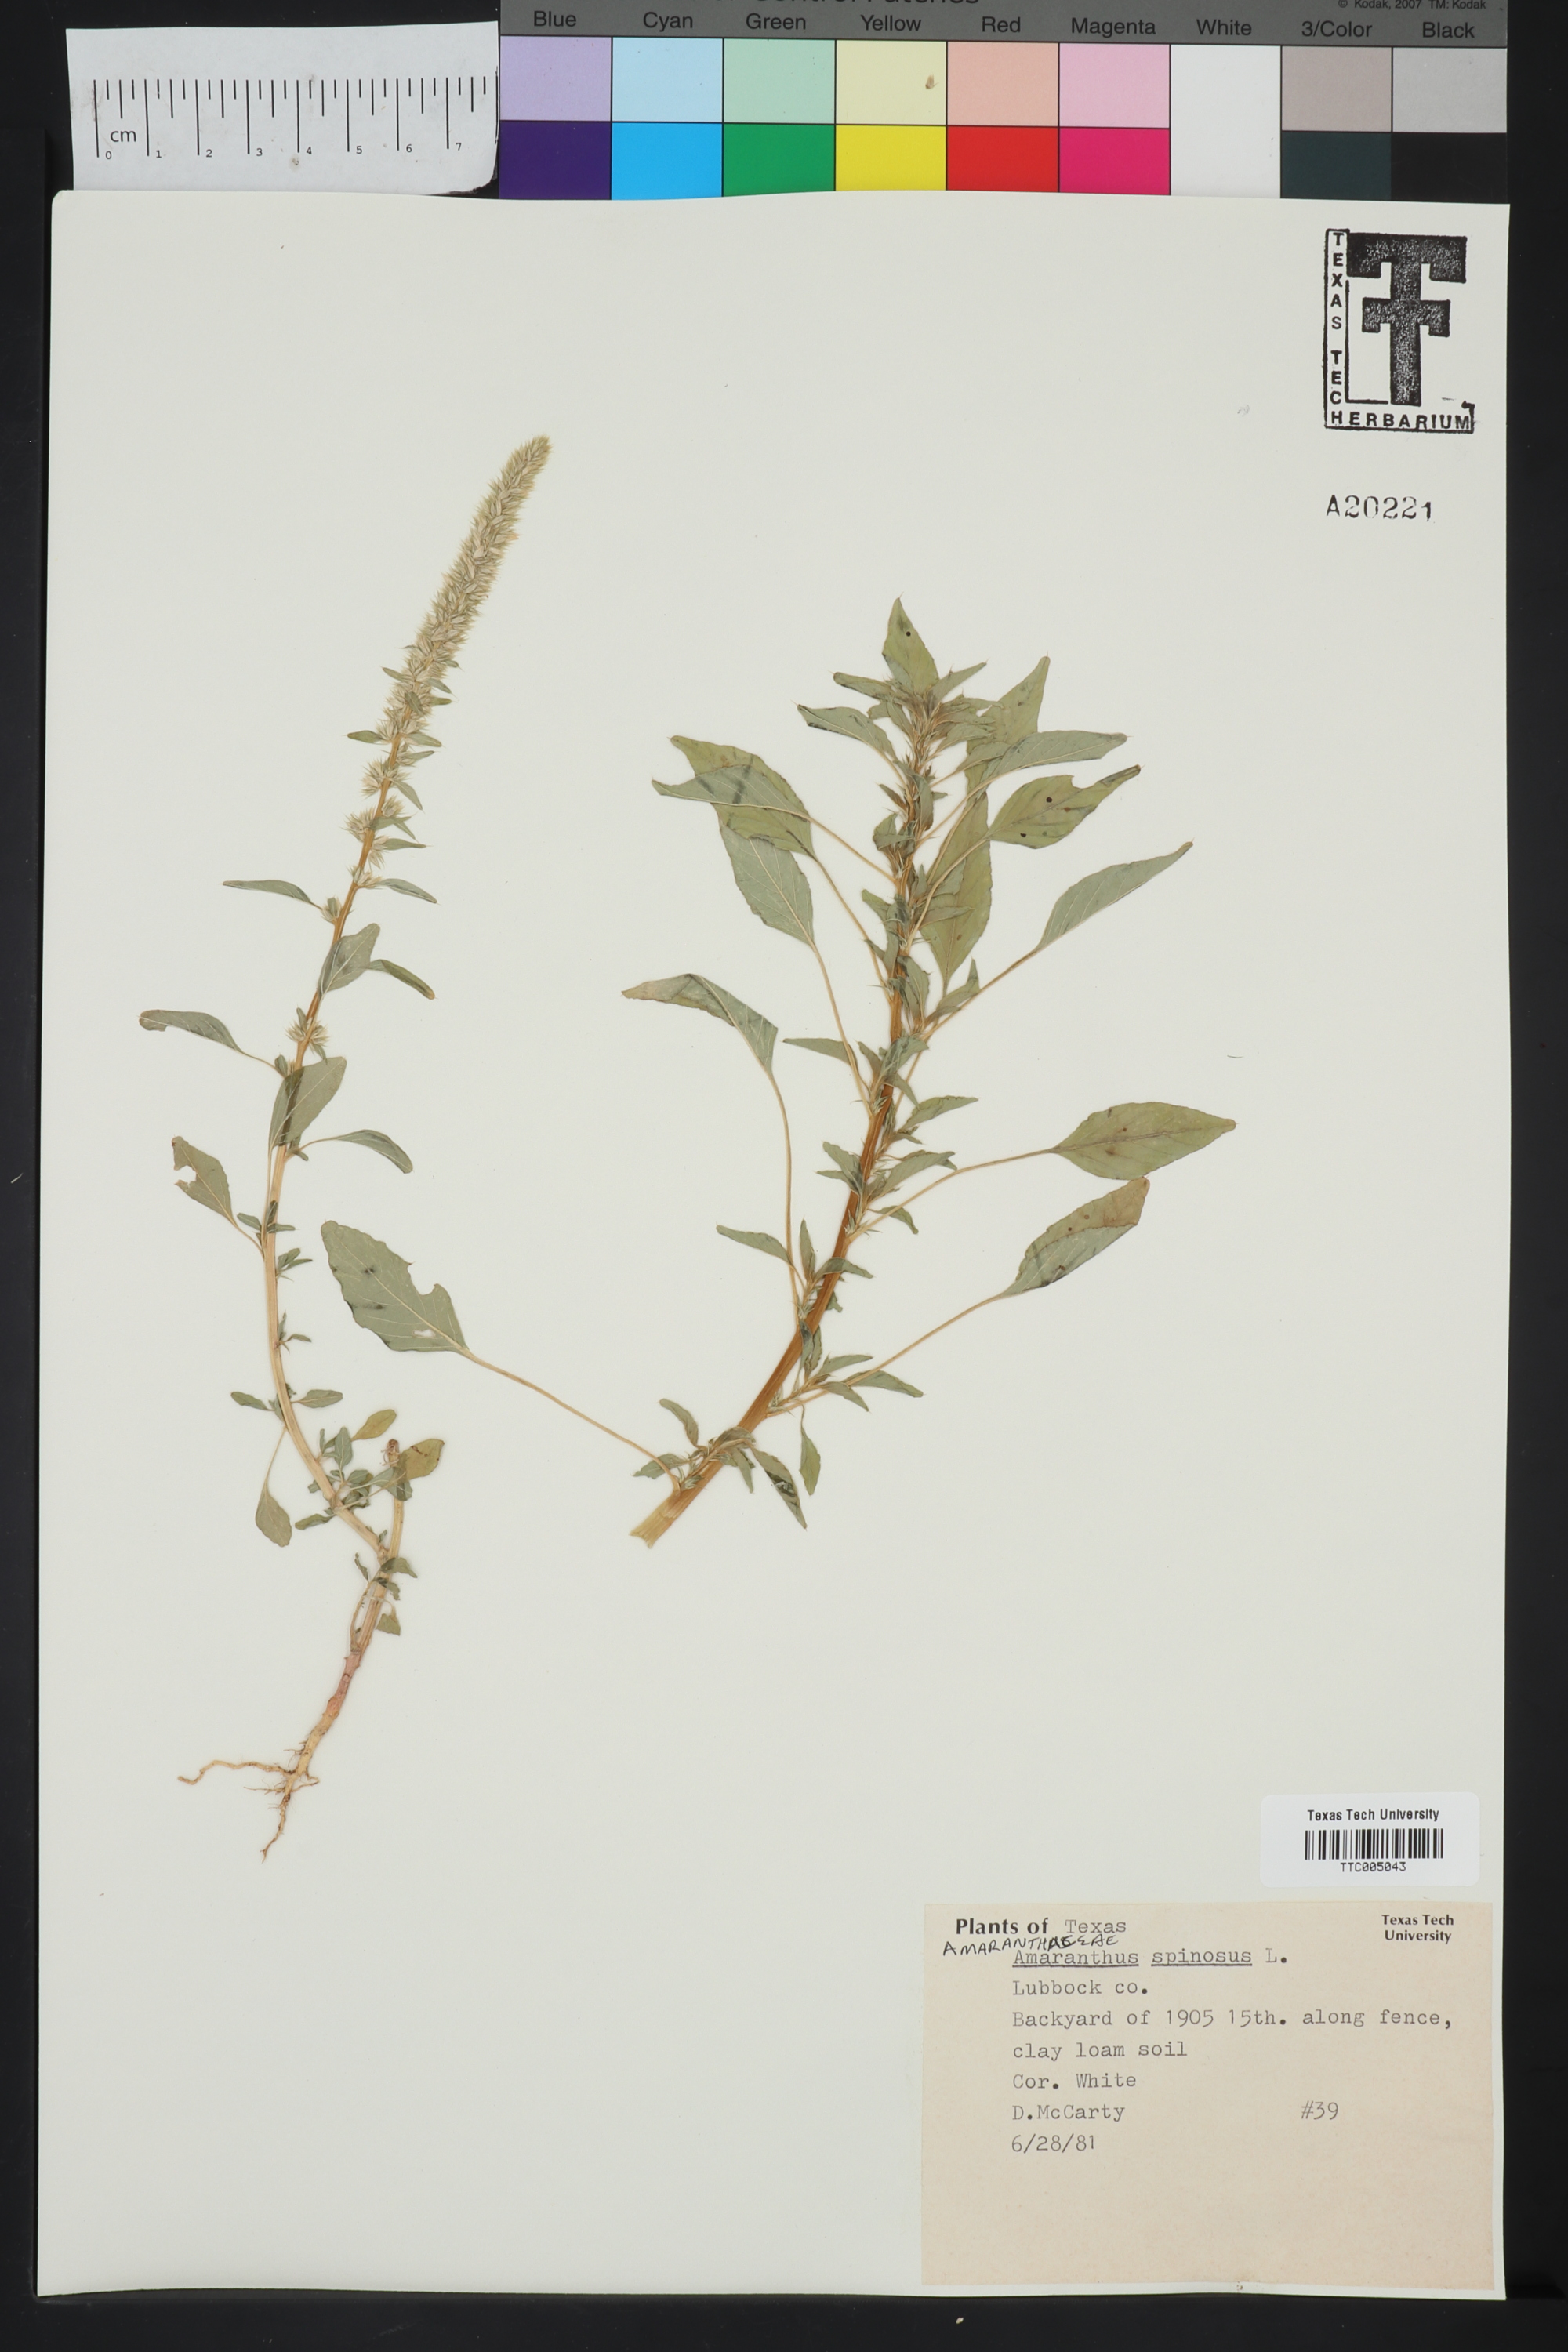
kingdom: Plantae
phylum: Tracheophyta
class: Magnoliopsida
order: Caryophyllales
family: Amaranthaceae
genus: Amaranthus
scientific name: Amaranthus spinosus
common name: Spiny amaranth
